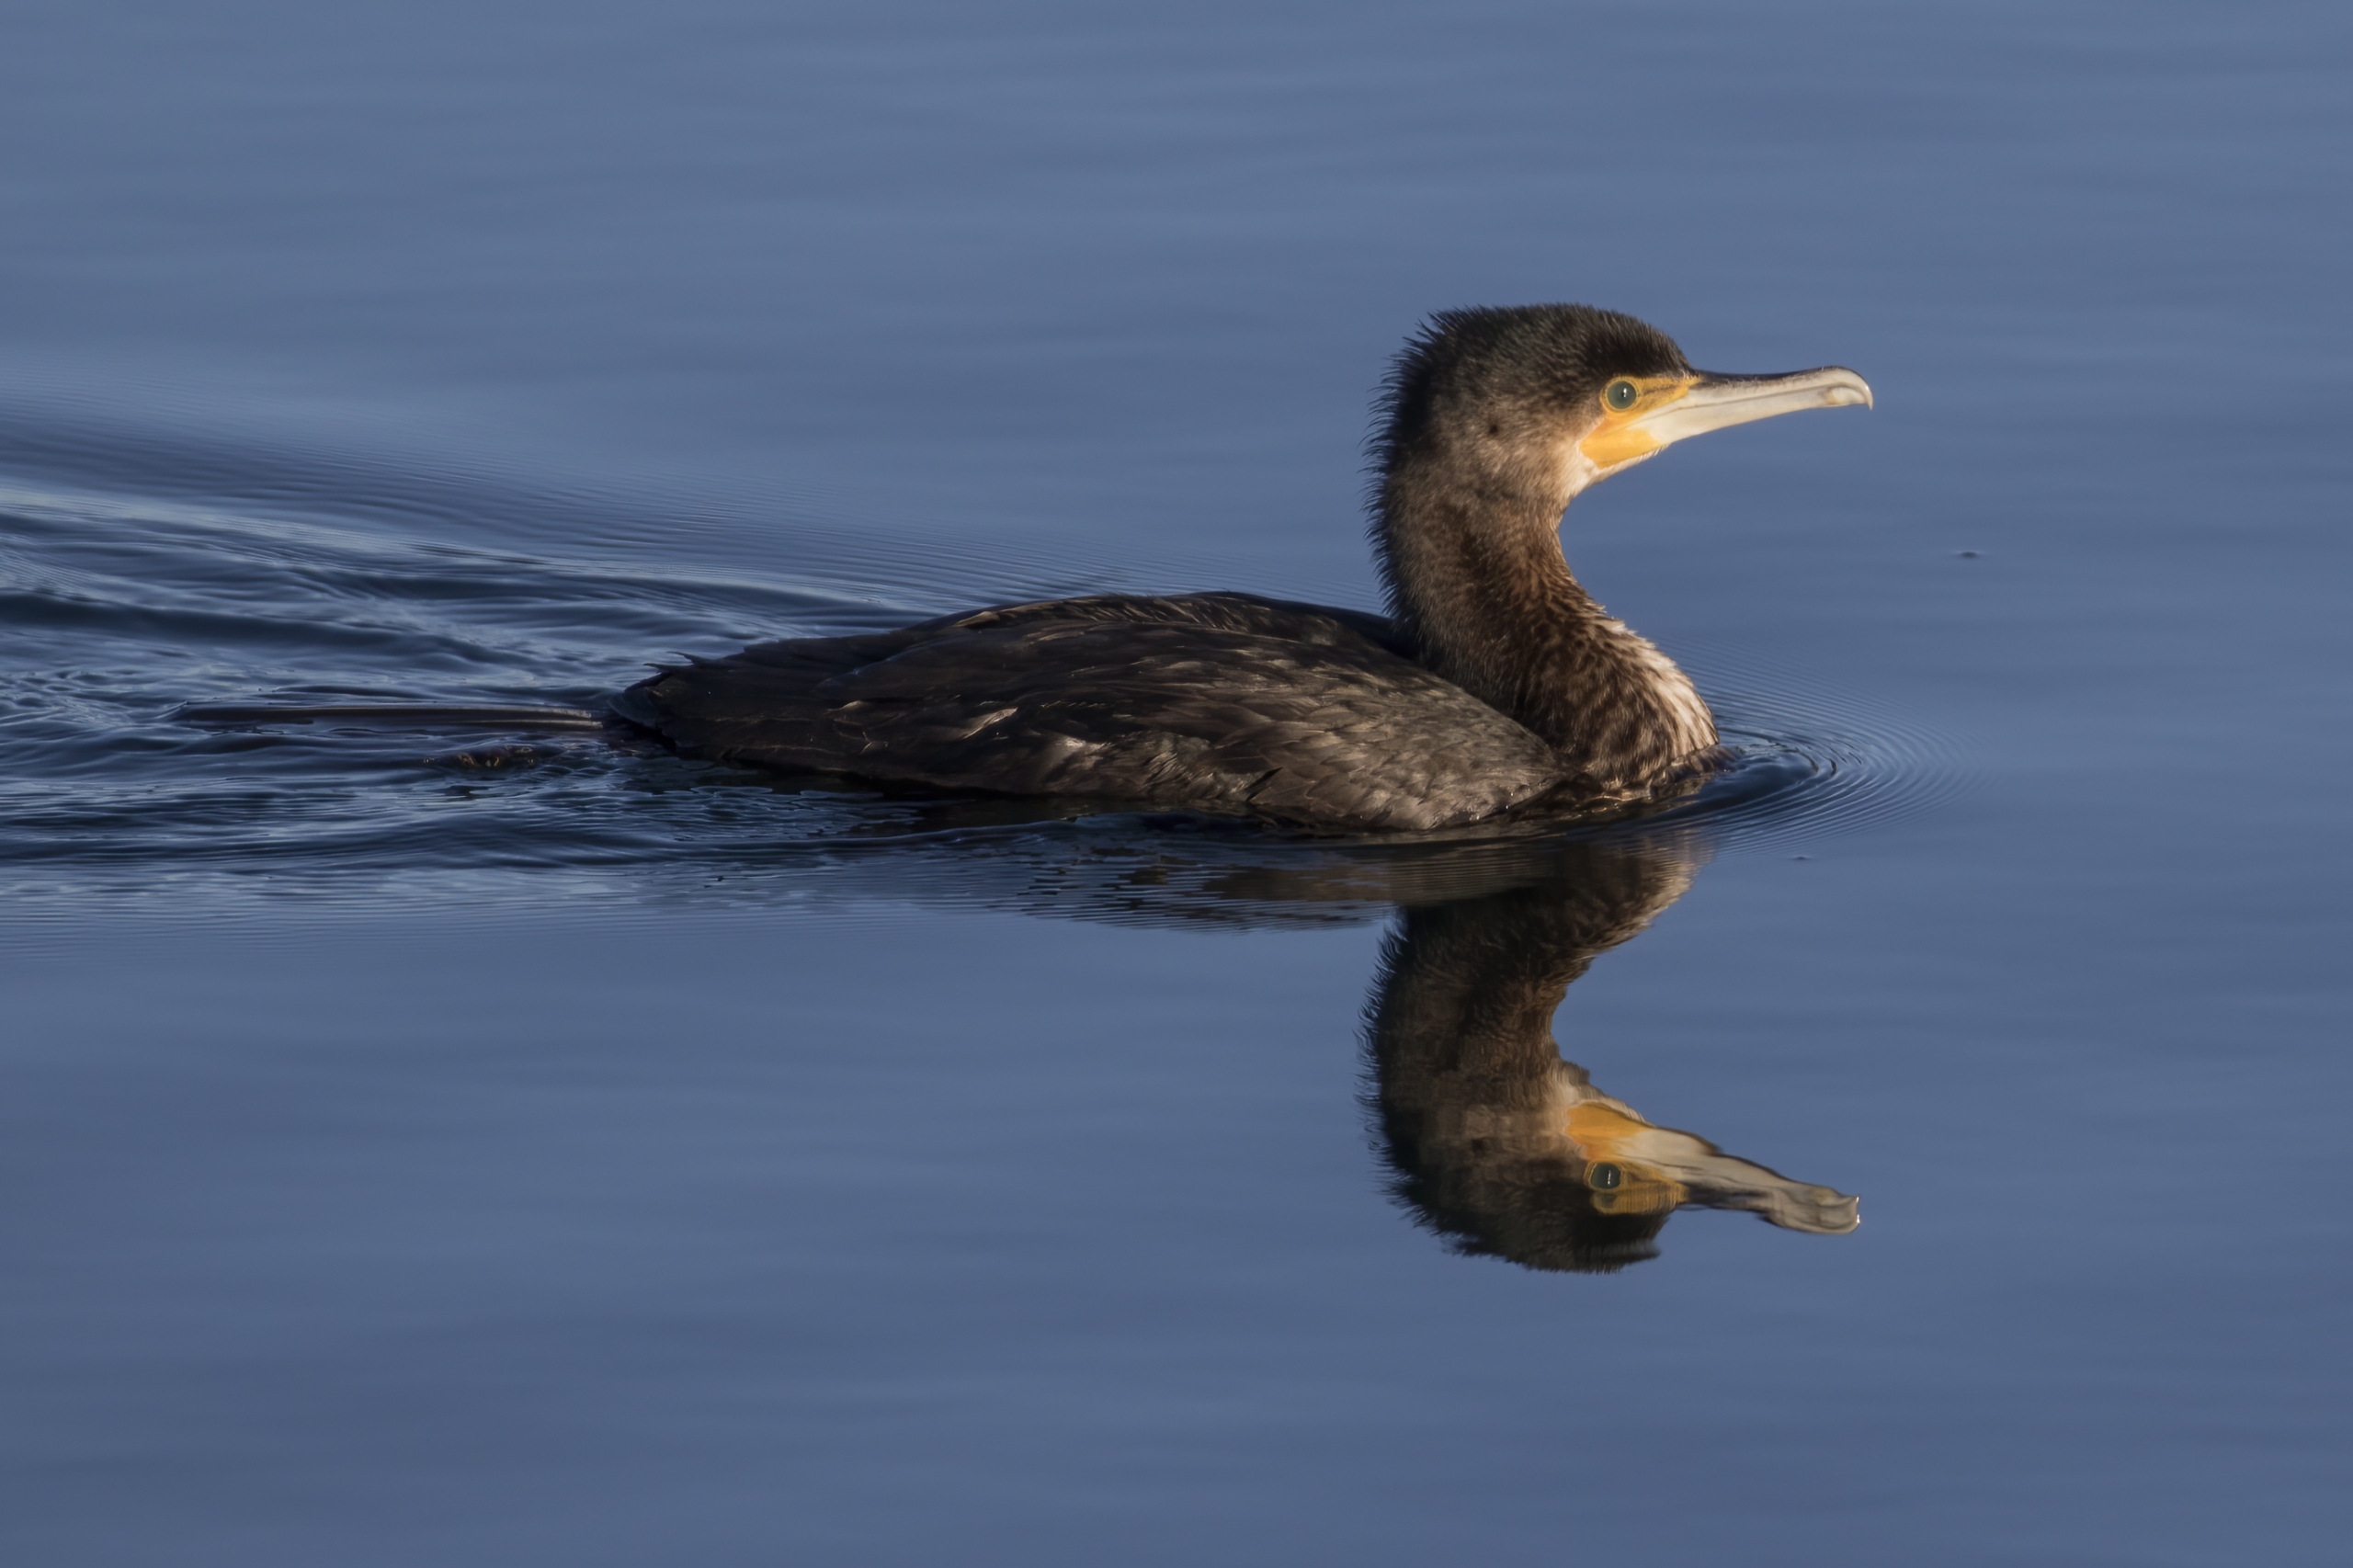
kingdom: Animalia
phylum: Chordata
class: Aves
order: Suliformes
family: Phalacrocoracidae
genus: Phalacrocorax
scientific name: Phalacrocorax carbo
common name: Skarv
